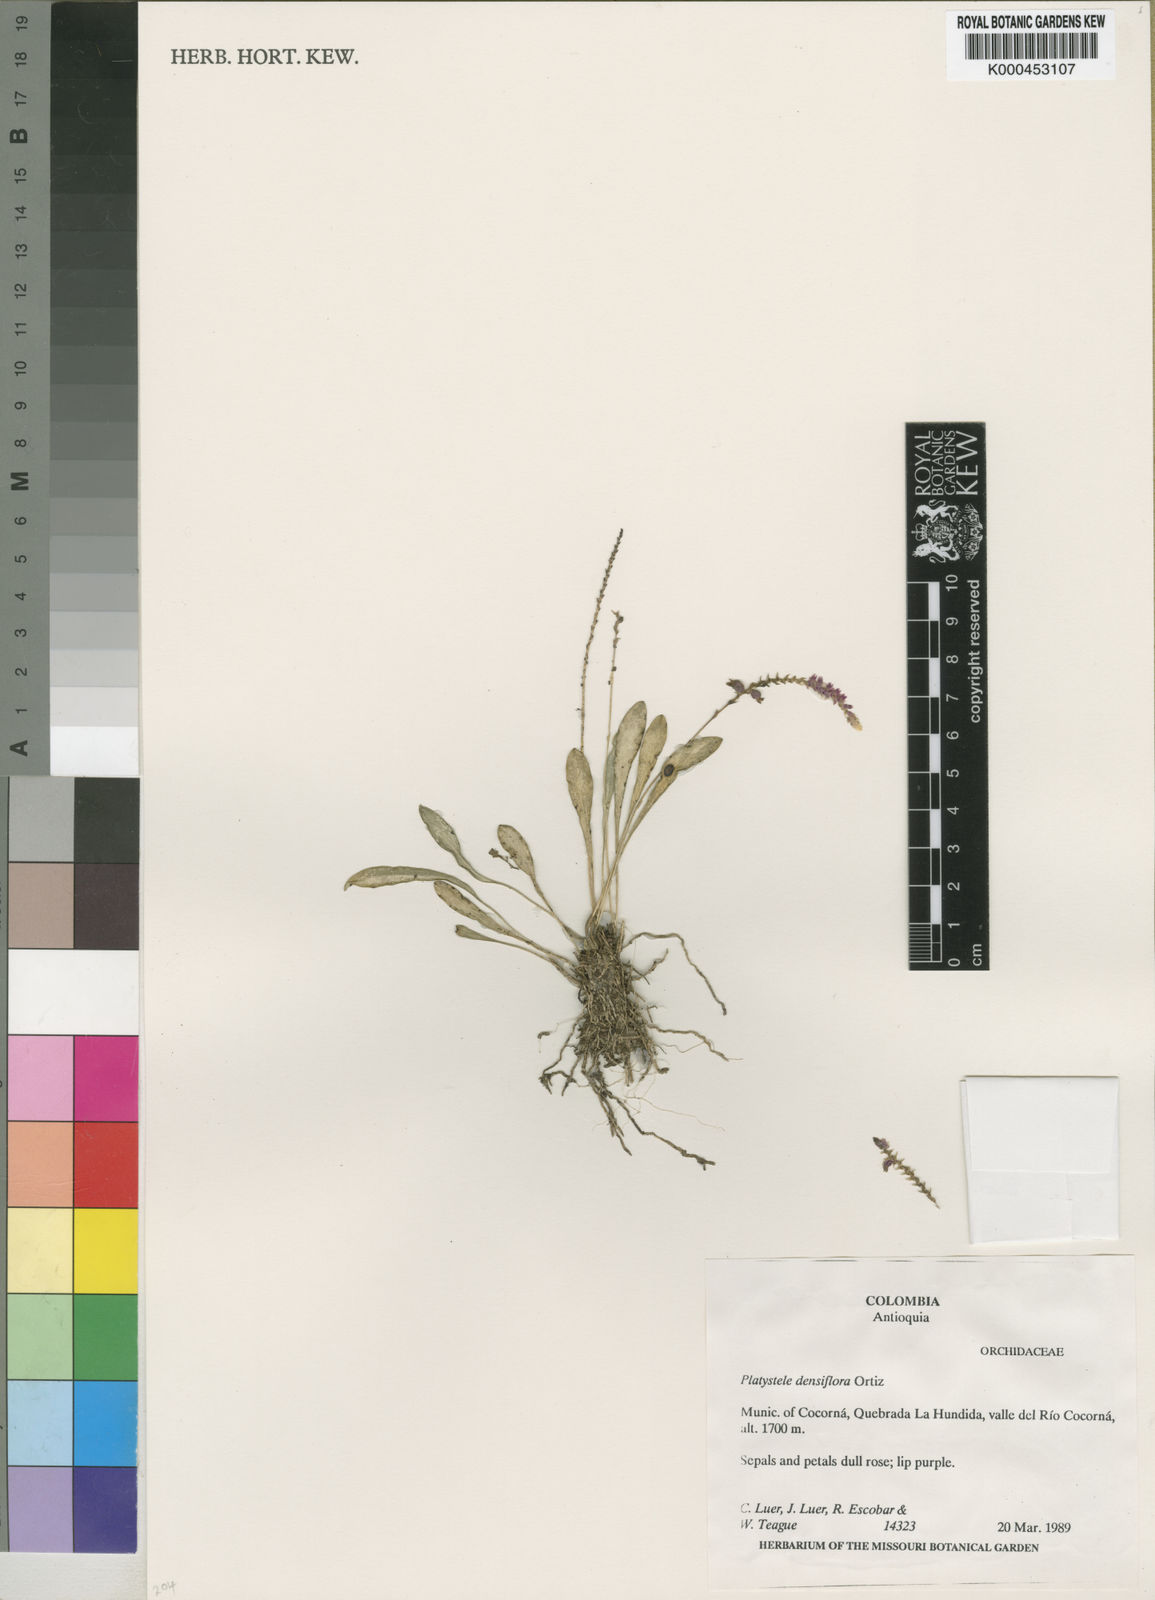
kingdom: Plantae
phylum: Tracheophyta
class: Liliopsida
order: Asparagales
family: Orchidaceae
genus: Platystele
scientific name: Platystele densiflora
